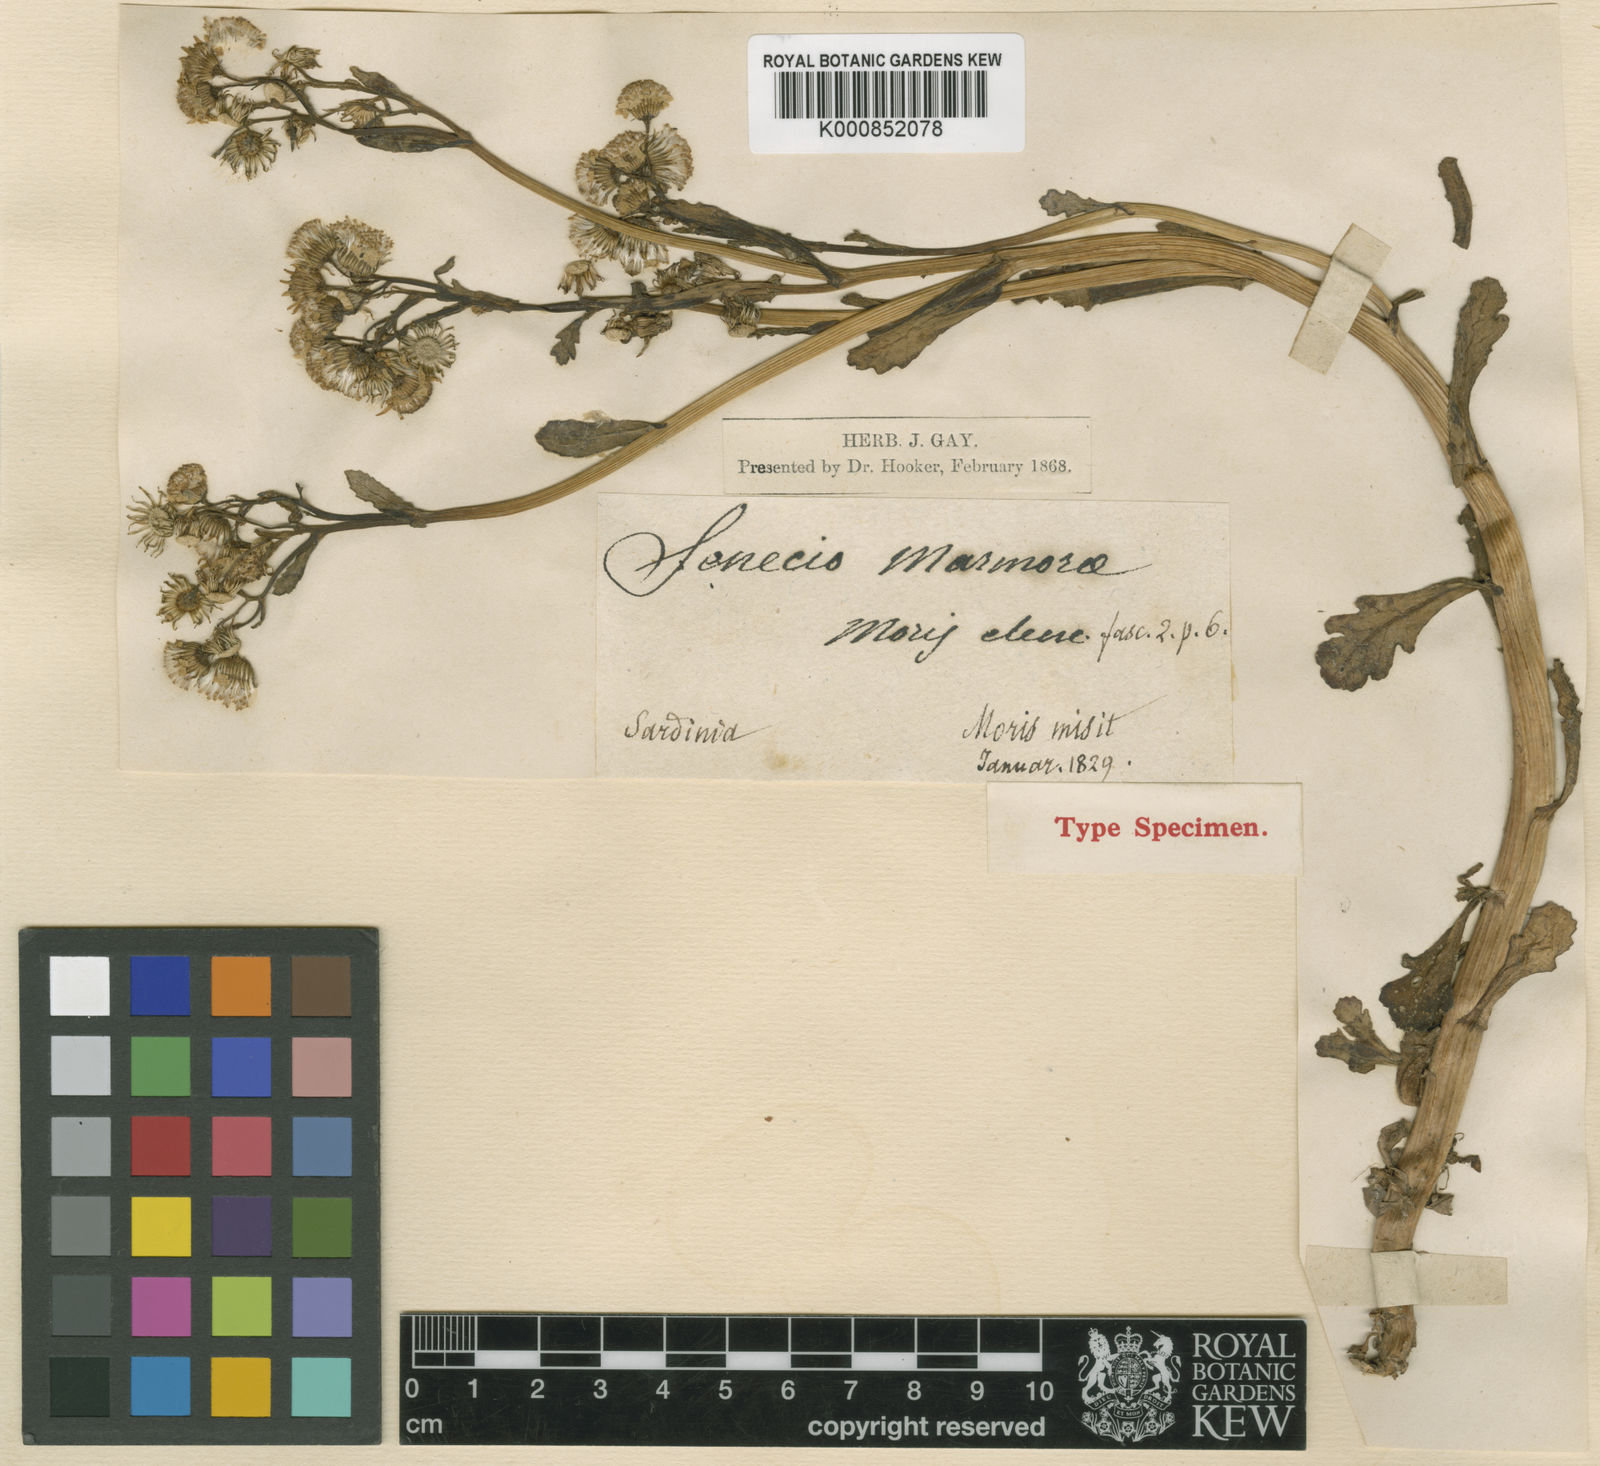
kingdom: Plantae
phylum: Tracheophyta
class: Magnoliopsida
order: Asterales
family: Asteraceae
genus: Senecio
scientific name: Senecio leucanthemifolius
